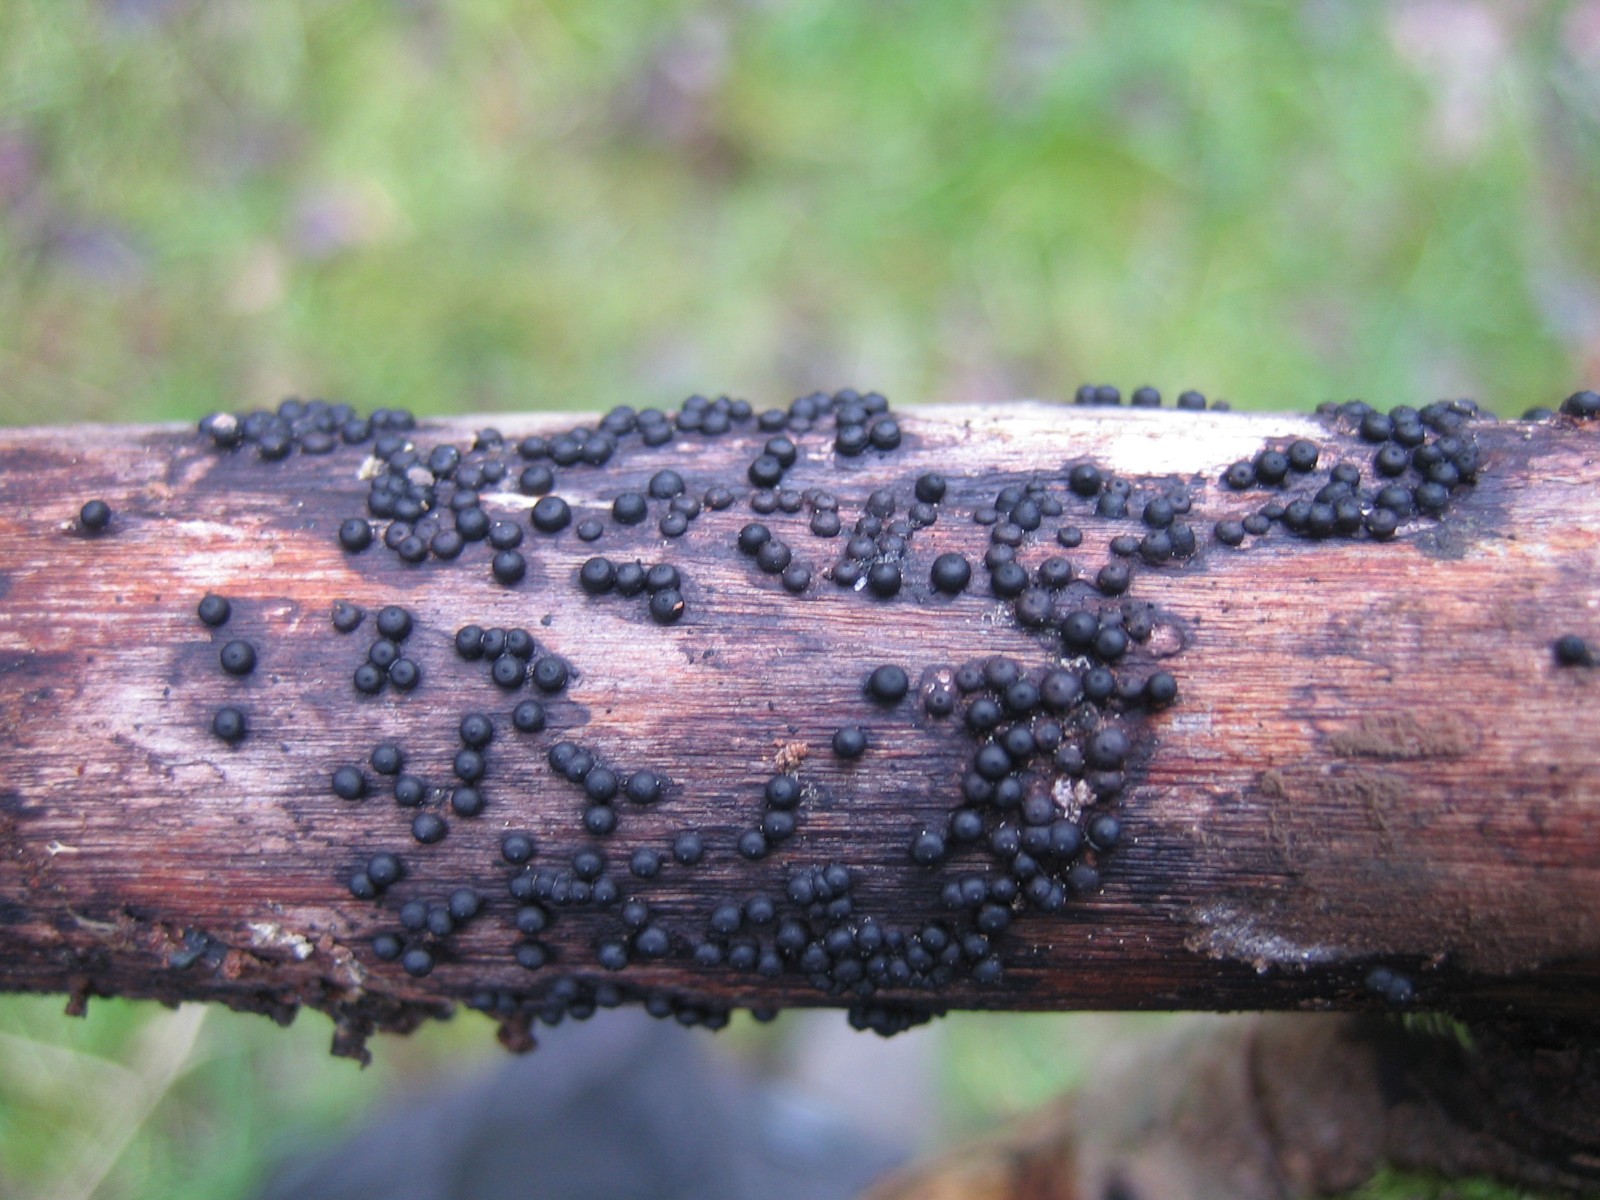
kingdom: Fungi
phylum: Ascomycota
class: Sordariomycetes
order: Xylariales
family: Xylariaceae
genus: Rosellinia
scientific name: Rosellinia
